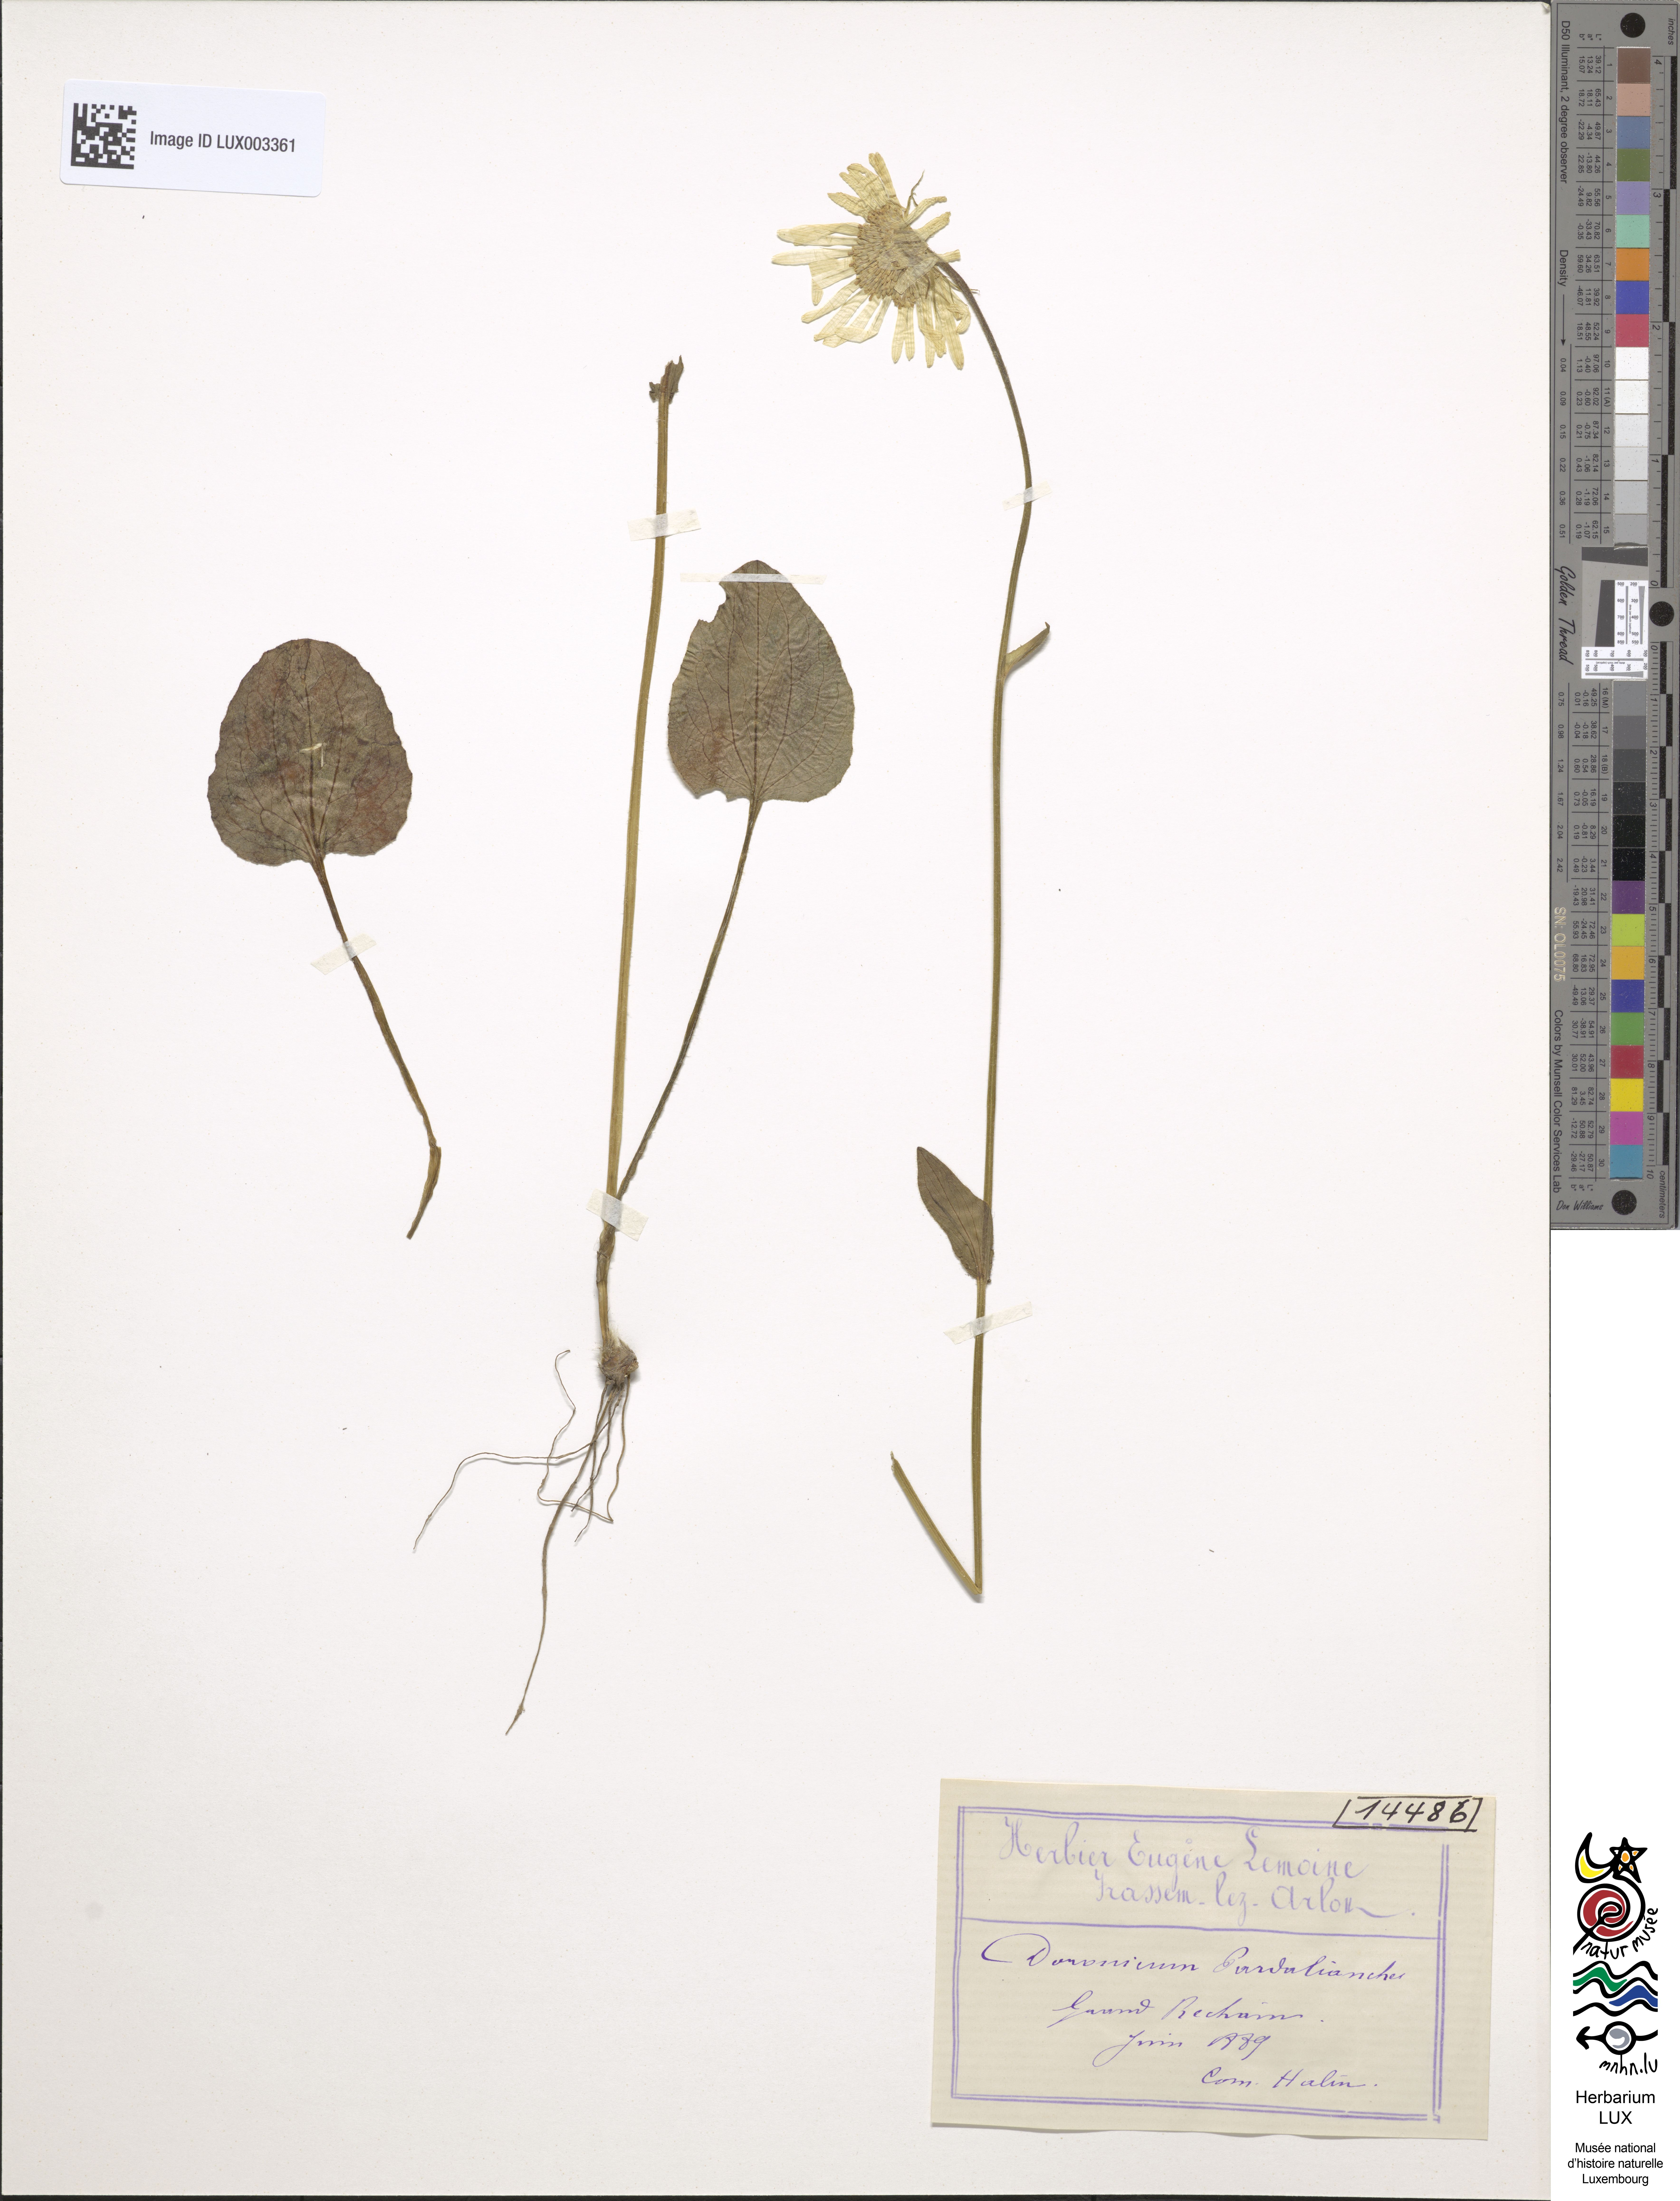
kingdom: Plantae
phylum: Tracheophyta
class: Magnoliopsida
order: Asterales
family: Asteraceae
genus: Doronicum
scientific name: Doronicum pardalianches
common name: Leopard's-bane
